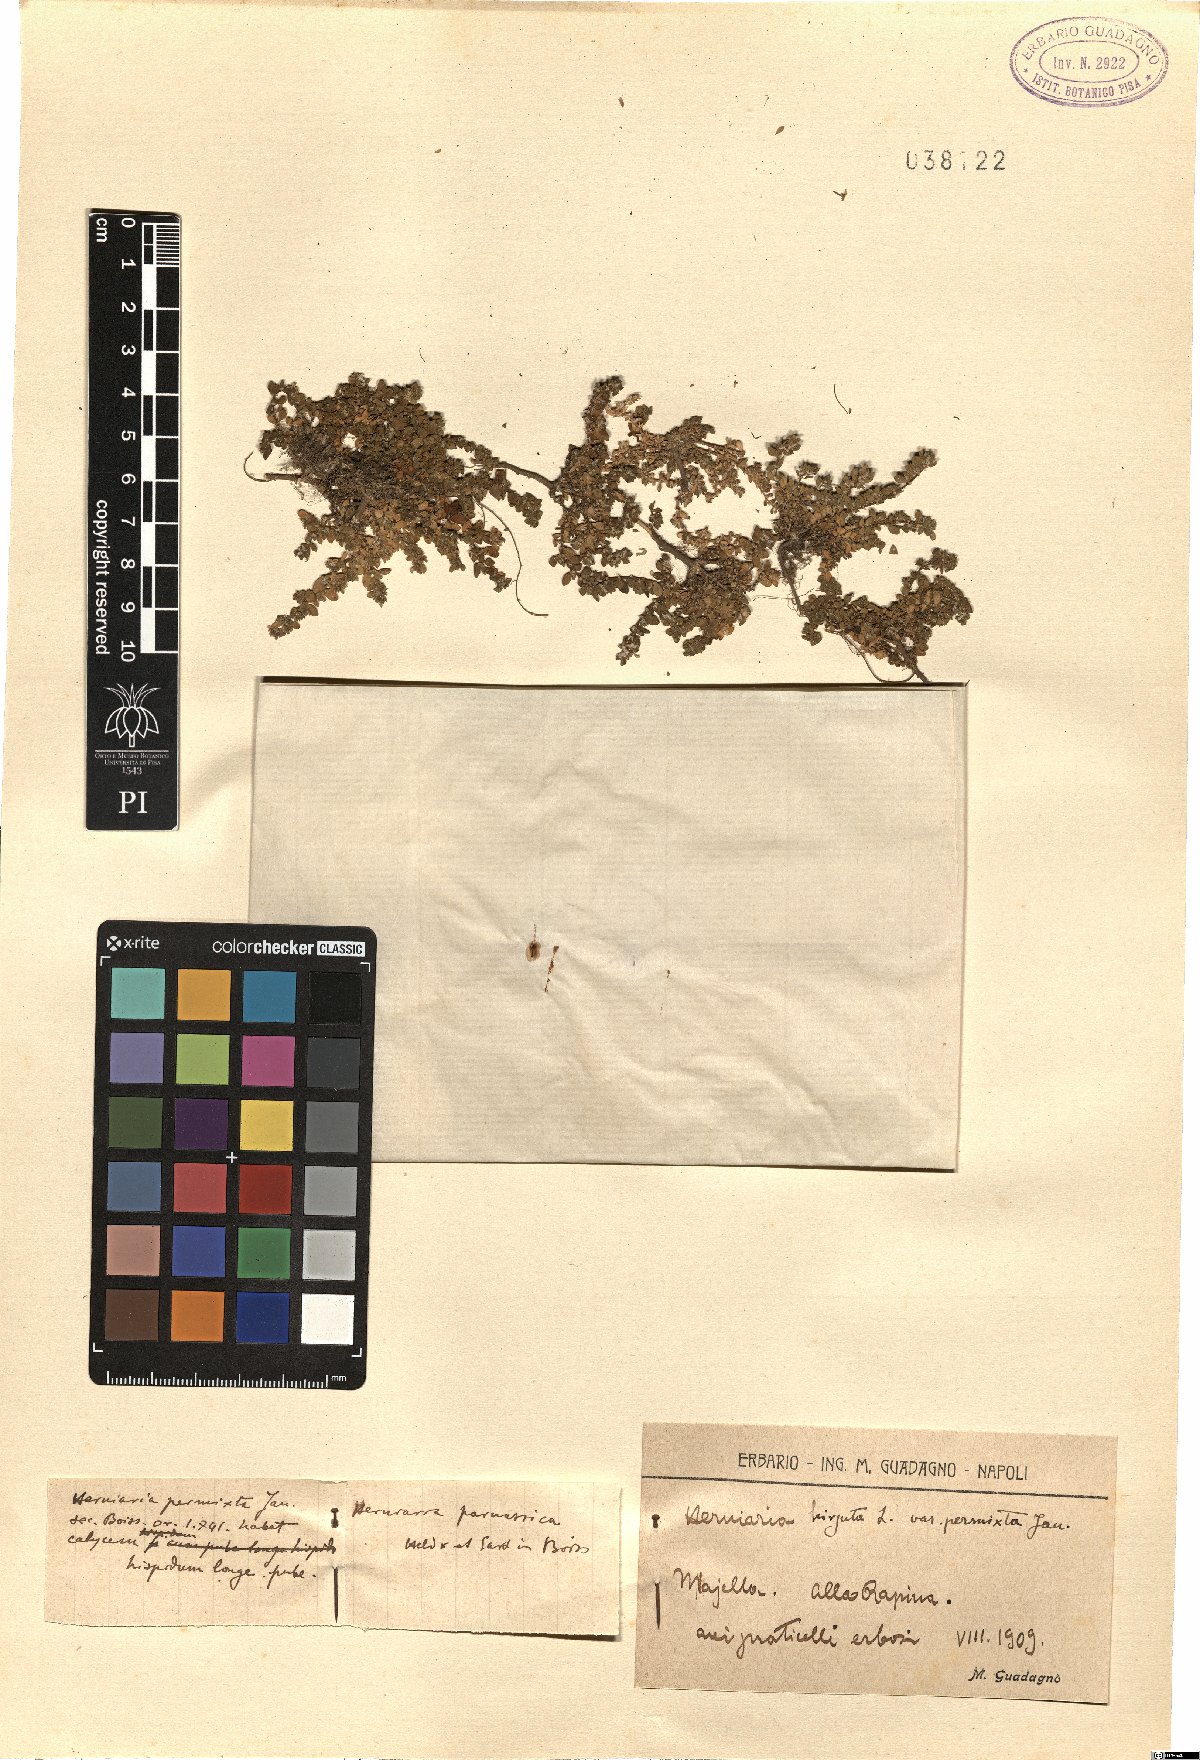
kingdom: Plantae
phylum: Tracheophyta
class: Magnoliopsida
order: Caryophyllales
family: Caryophyllaceae
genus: Herniaria
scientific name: Herniaria permixta
